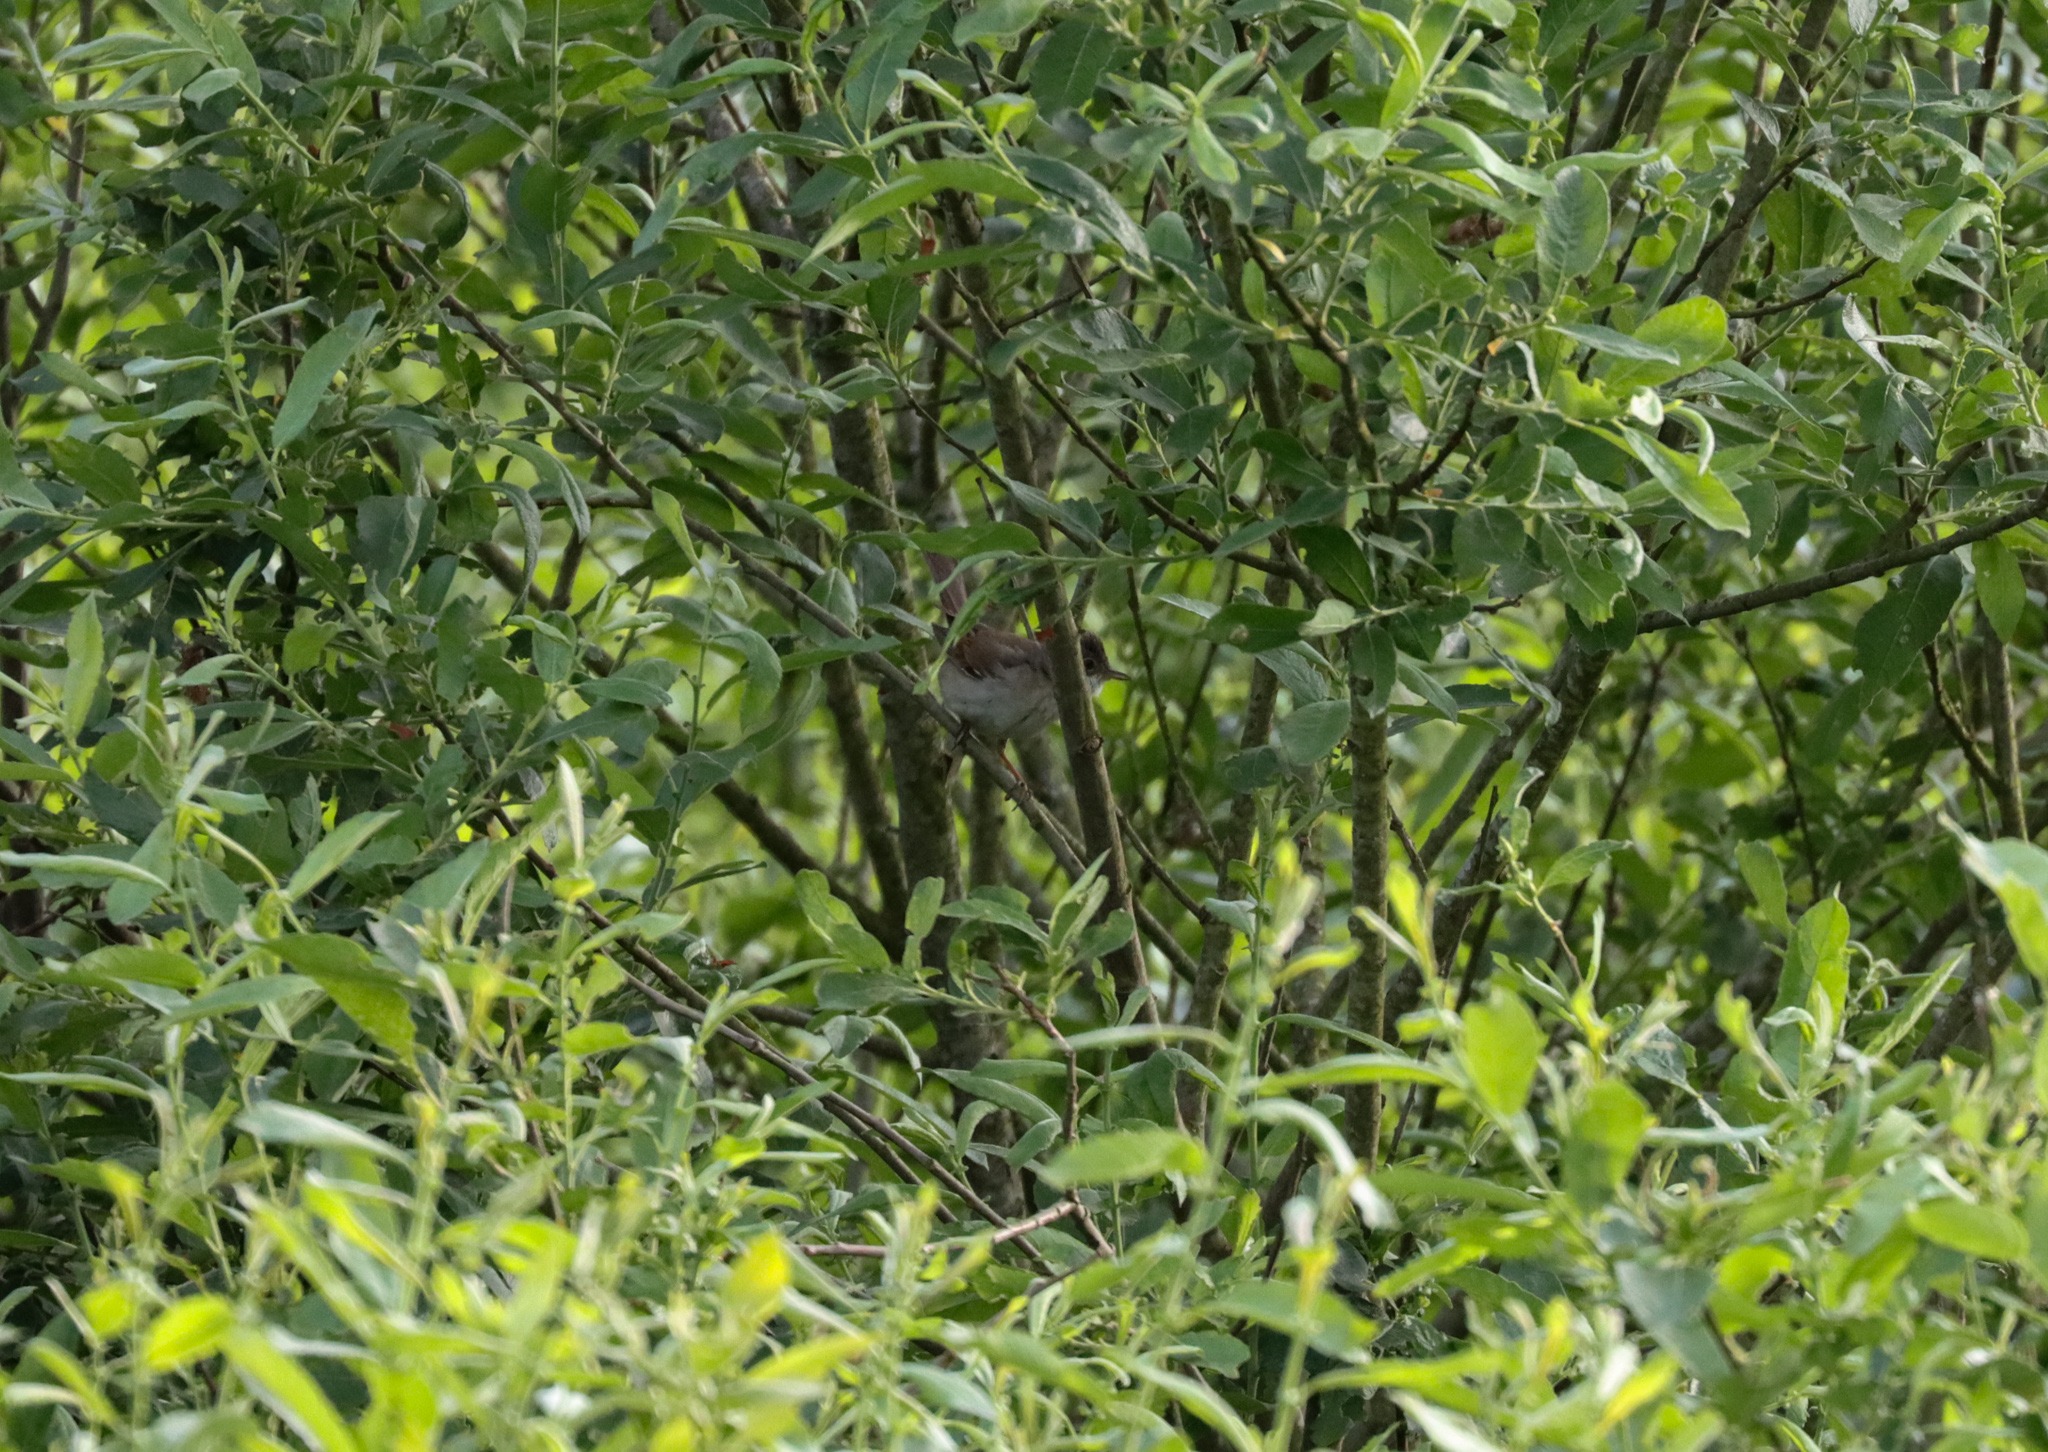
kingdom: Animalia
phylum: Chordata
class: Aves
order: Passeriformes
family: Sylviidae
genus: Sylvia
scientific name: Sylvia communis
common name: Tornsanger
